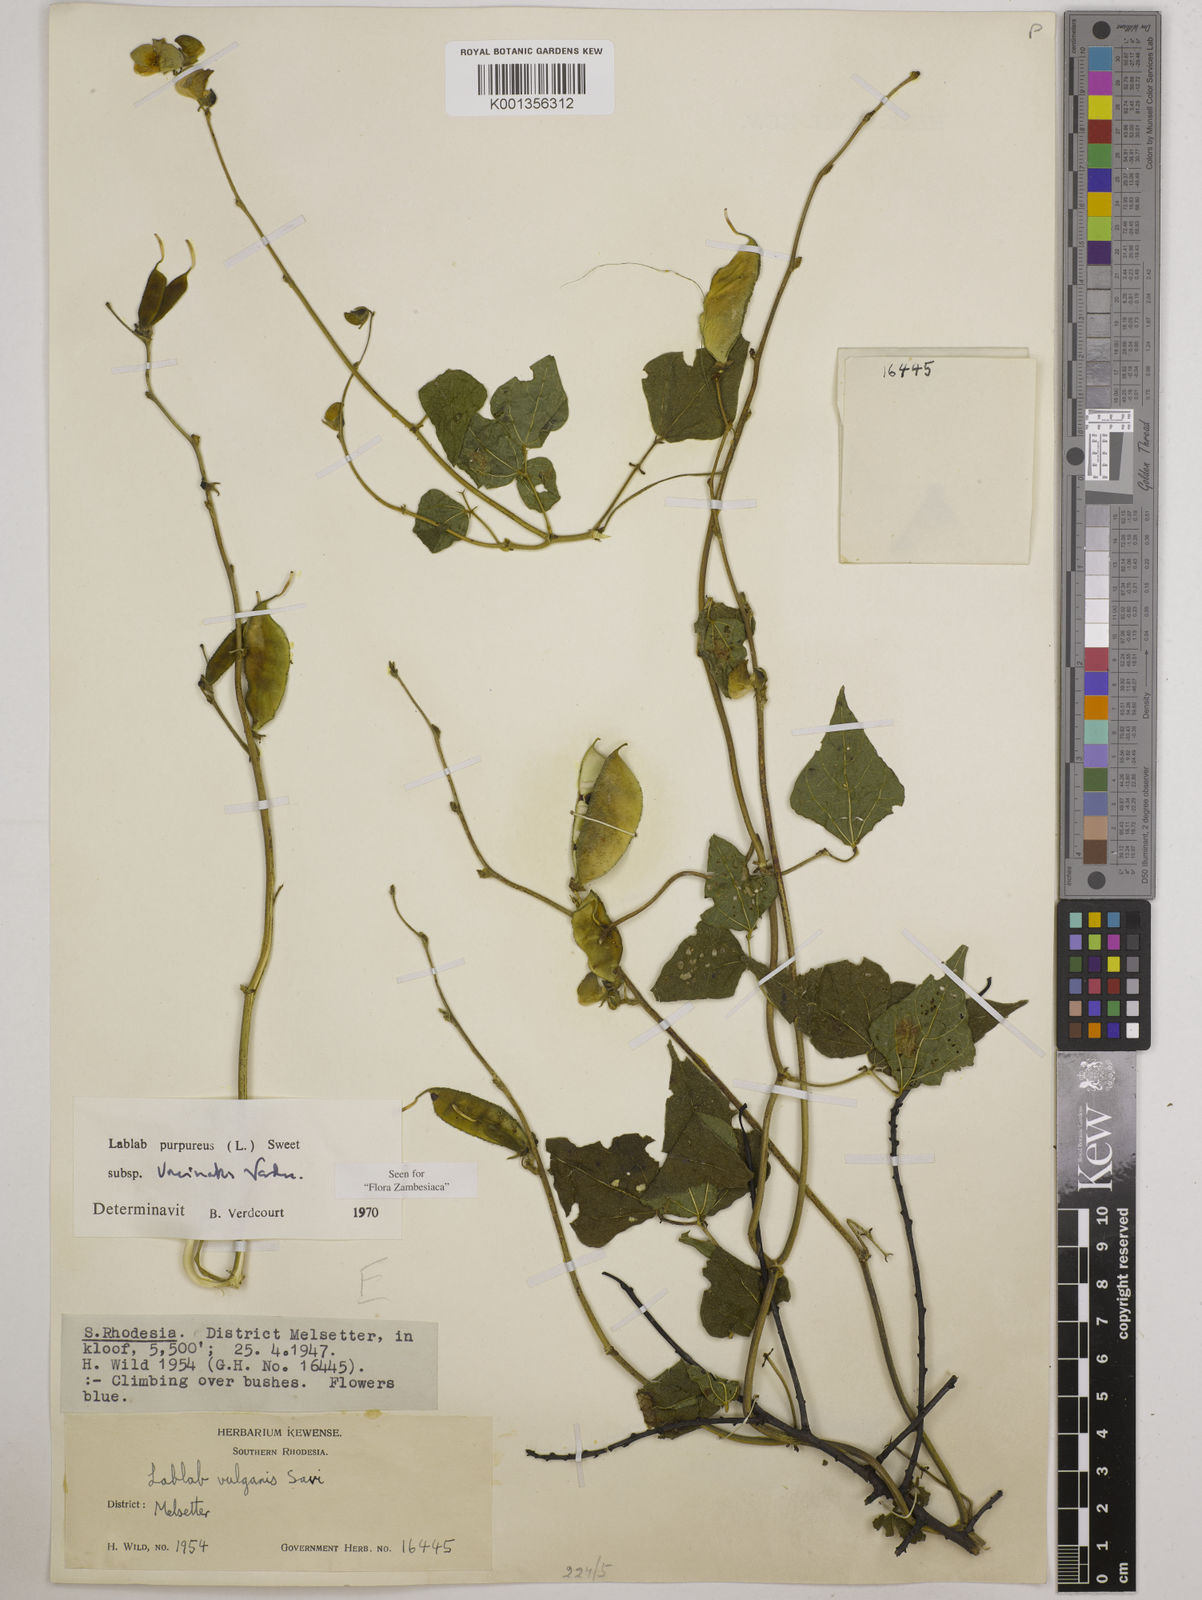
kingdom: Plantae
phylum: Tracheophyta
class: Magnoliopsida
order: Fabales
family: Fabaceae
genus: Lablab
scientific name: Lablab purpureus
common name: Lablab-bean
